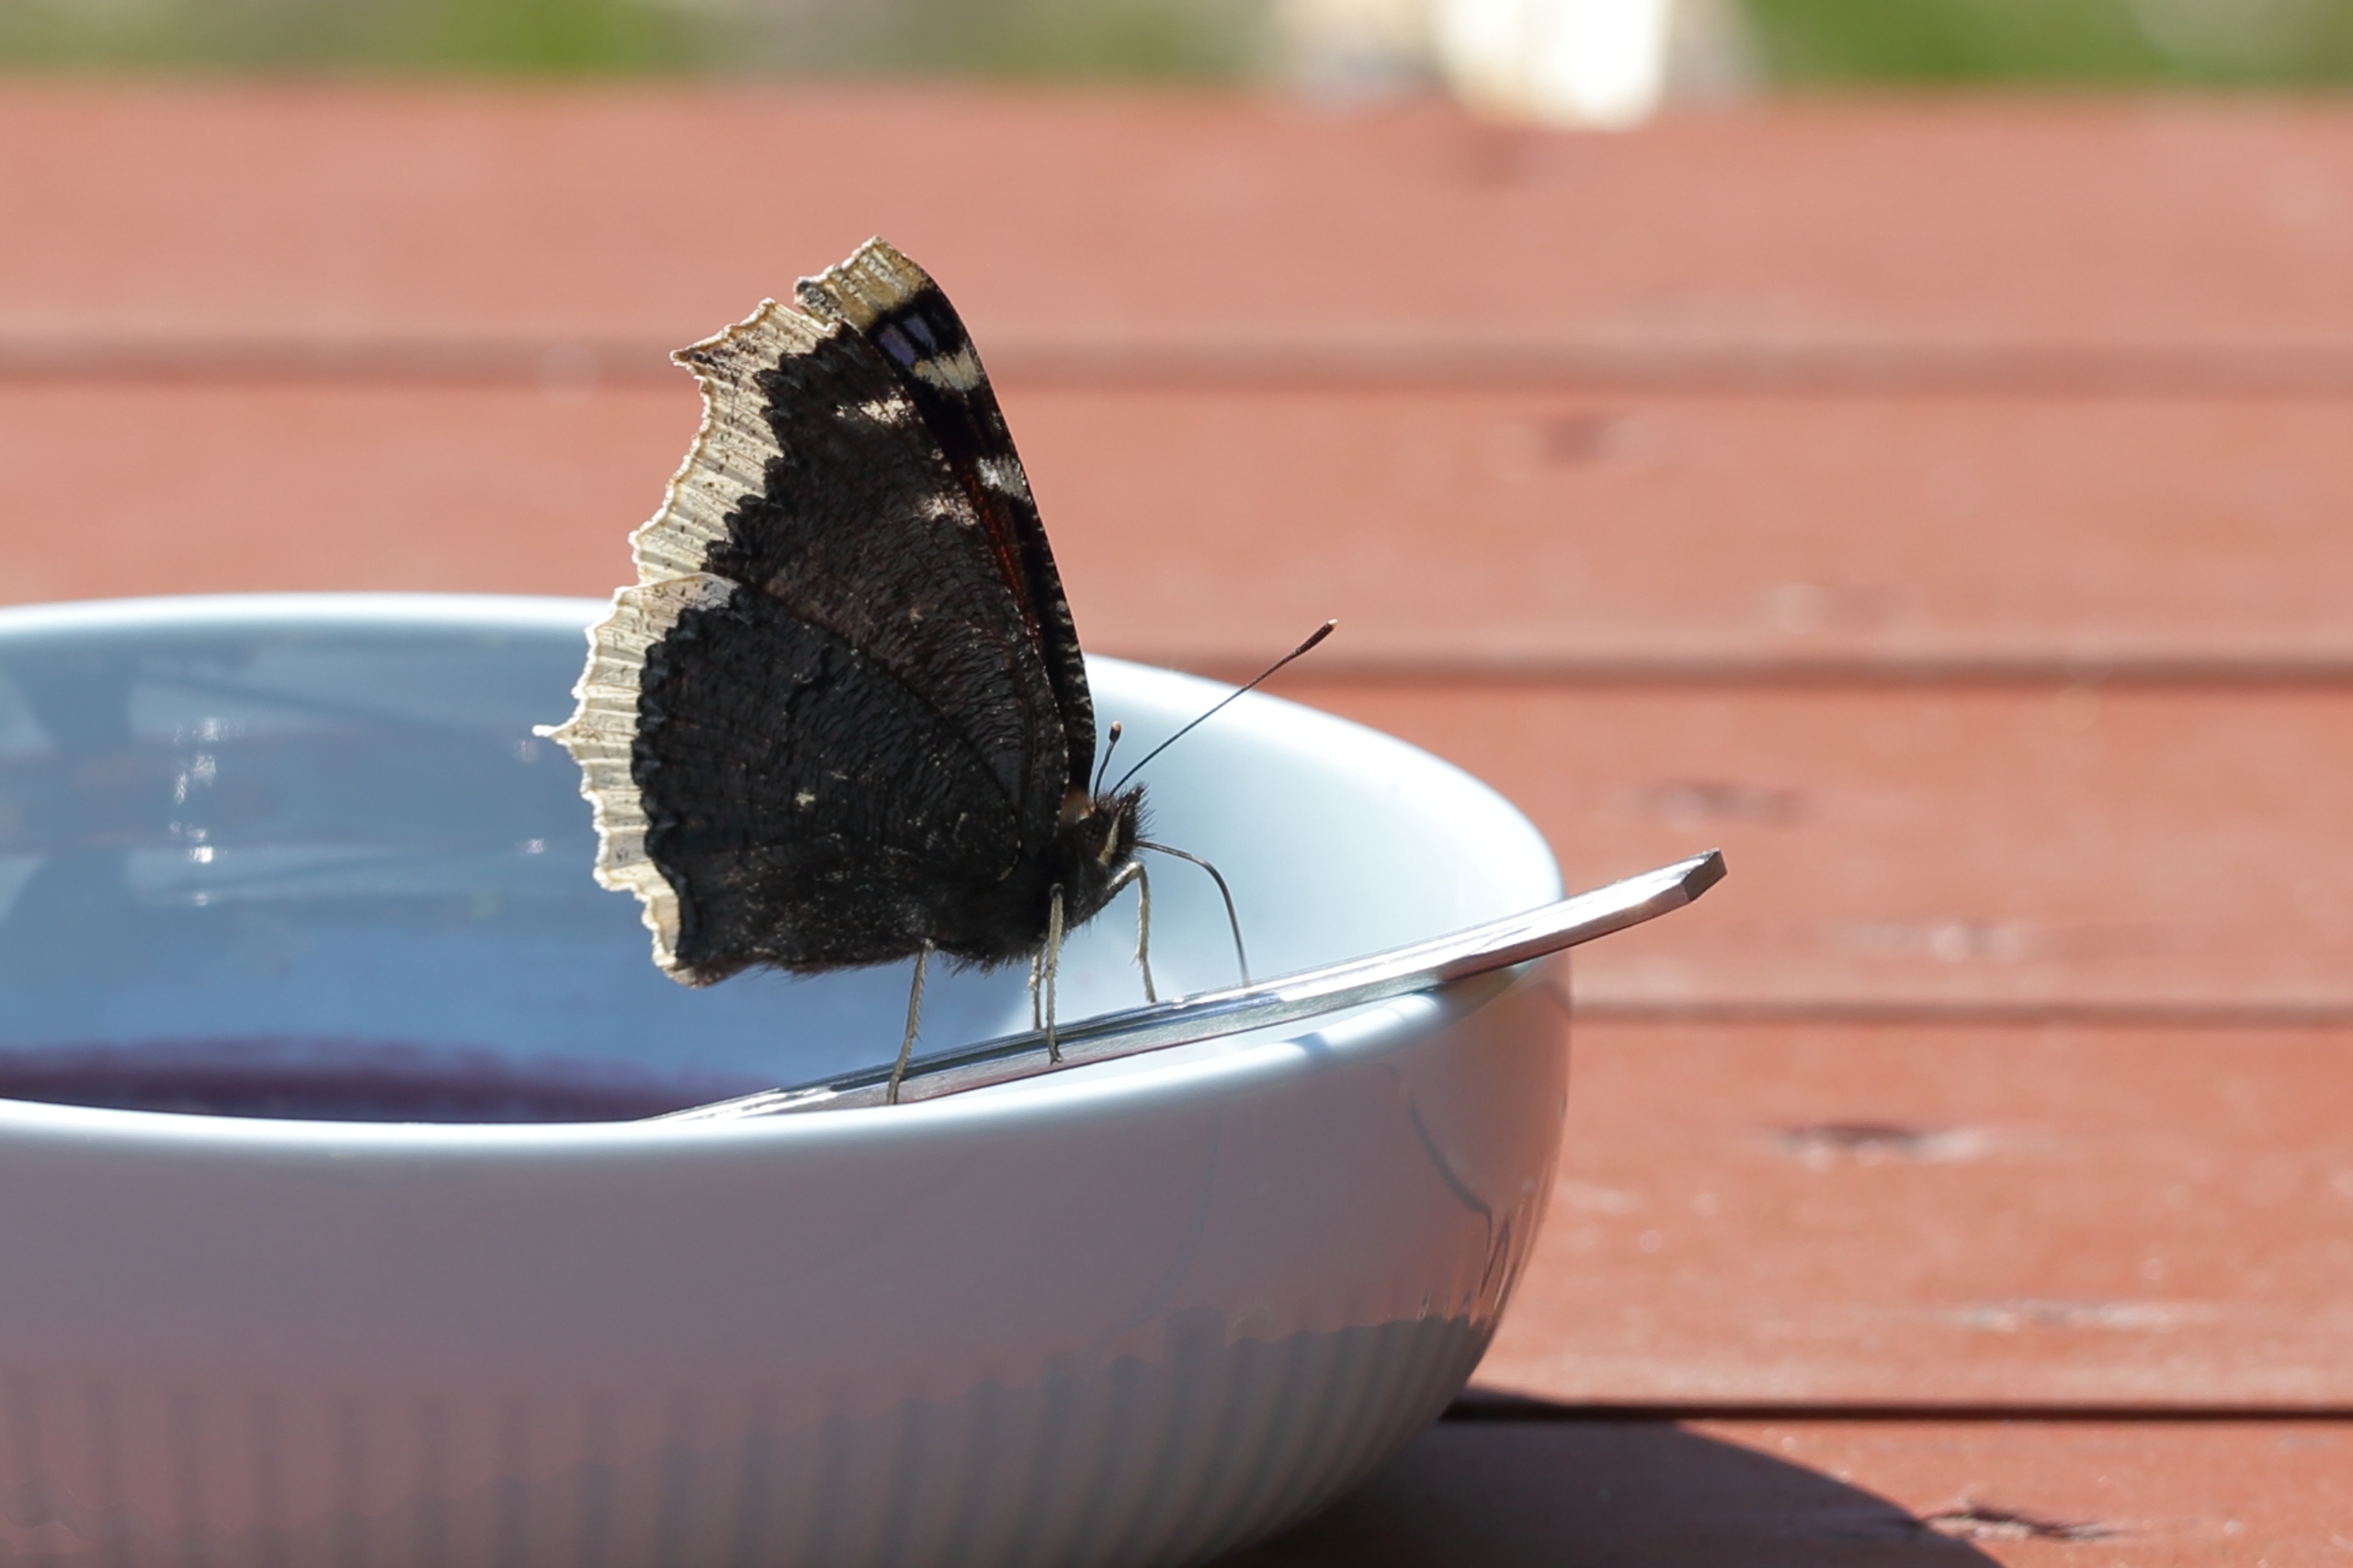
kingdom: Animalia
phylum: Arthropoda
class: Insecta
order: Lepidoptera
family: Nymphalidae
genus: Nymphalis
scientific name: Nymphalis antiopa
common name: Sørgekåbe
